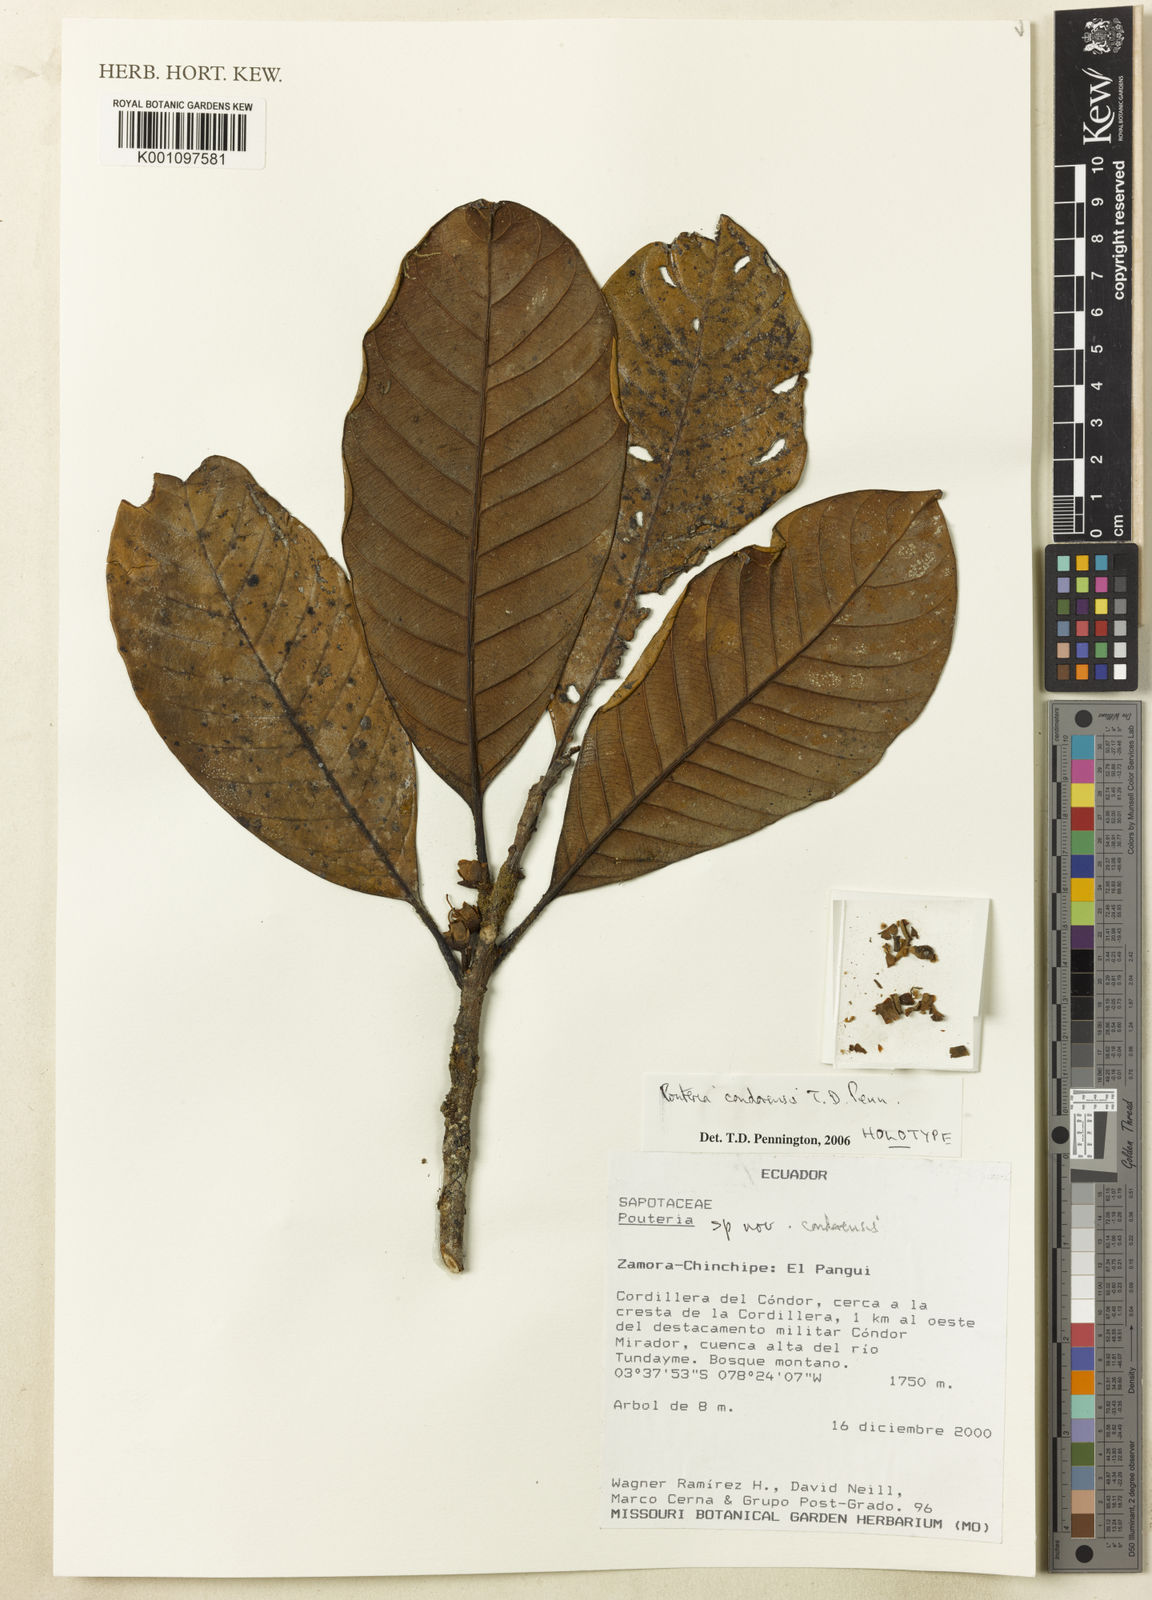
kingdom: Plantae
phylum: Tracheophyta
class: Magnoliopsida
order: Ericales
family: Sapotaceae
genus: Pouteria
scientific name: Pouteria condorensis
